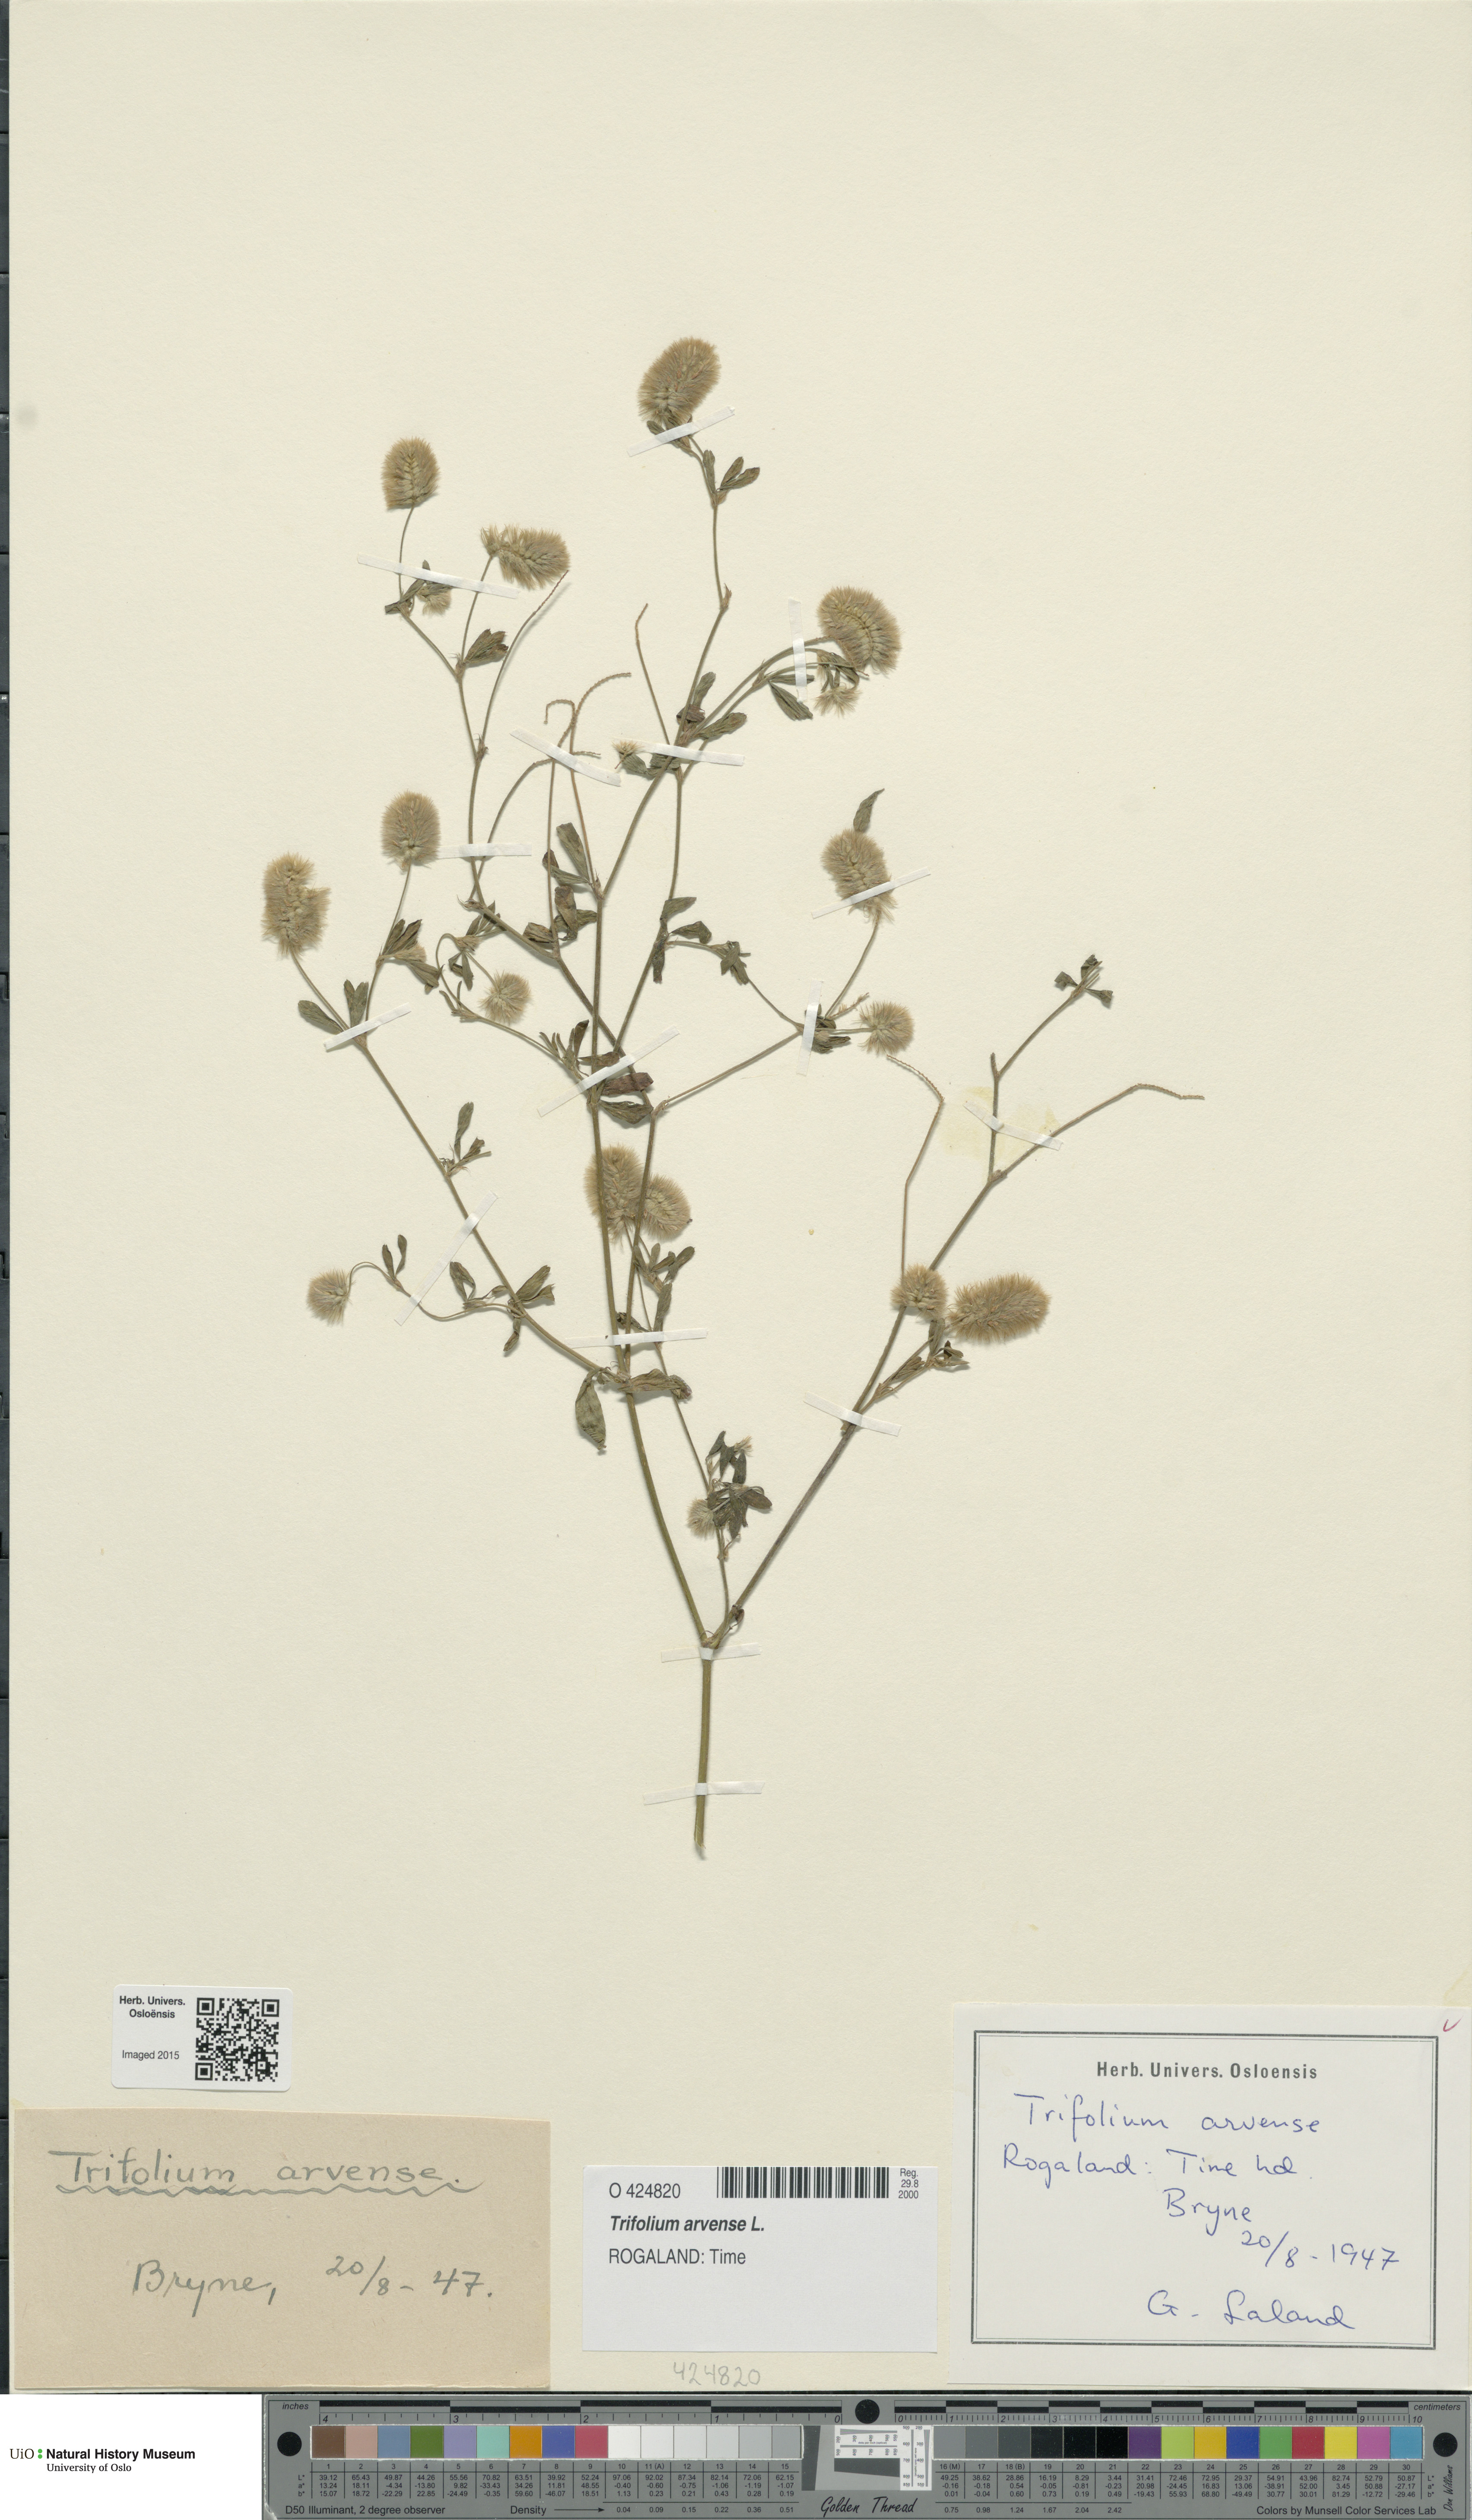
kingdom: Plantae
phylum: Tracheophyta
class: Magnoliopsida
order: Fabales
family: Fabaceae
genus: Trifolium
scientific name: Trifolium arvense
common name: Hare's-foot clover
